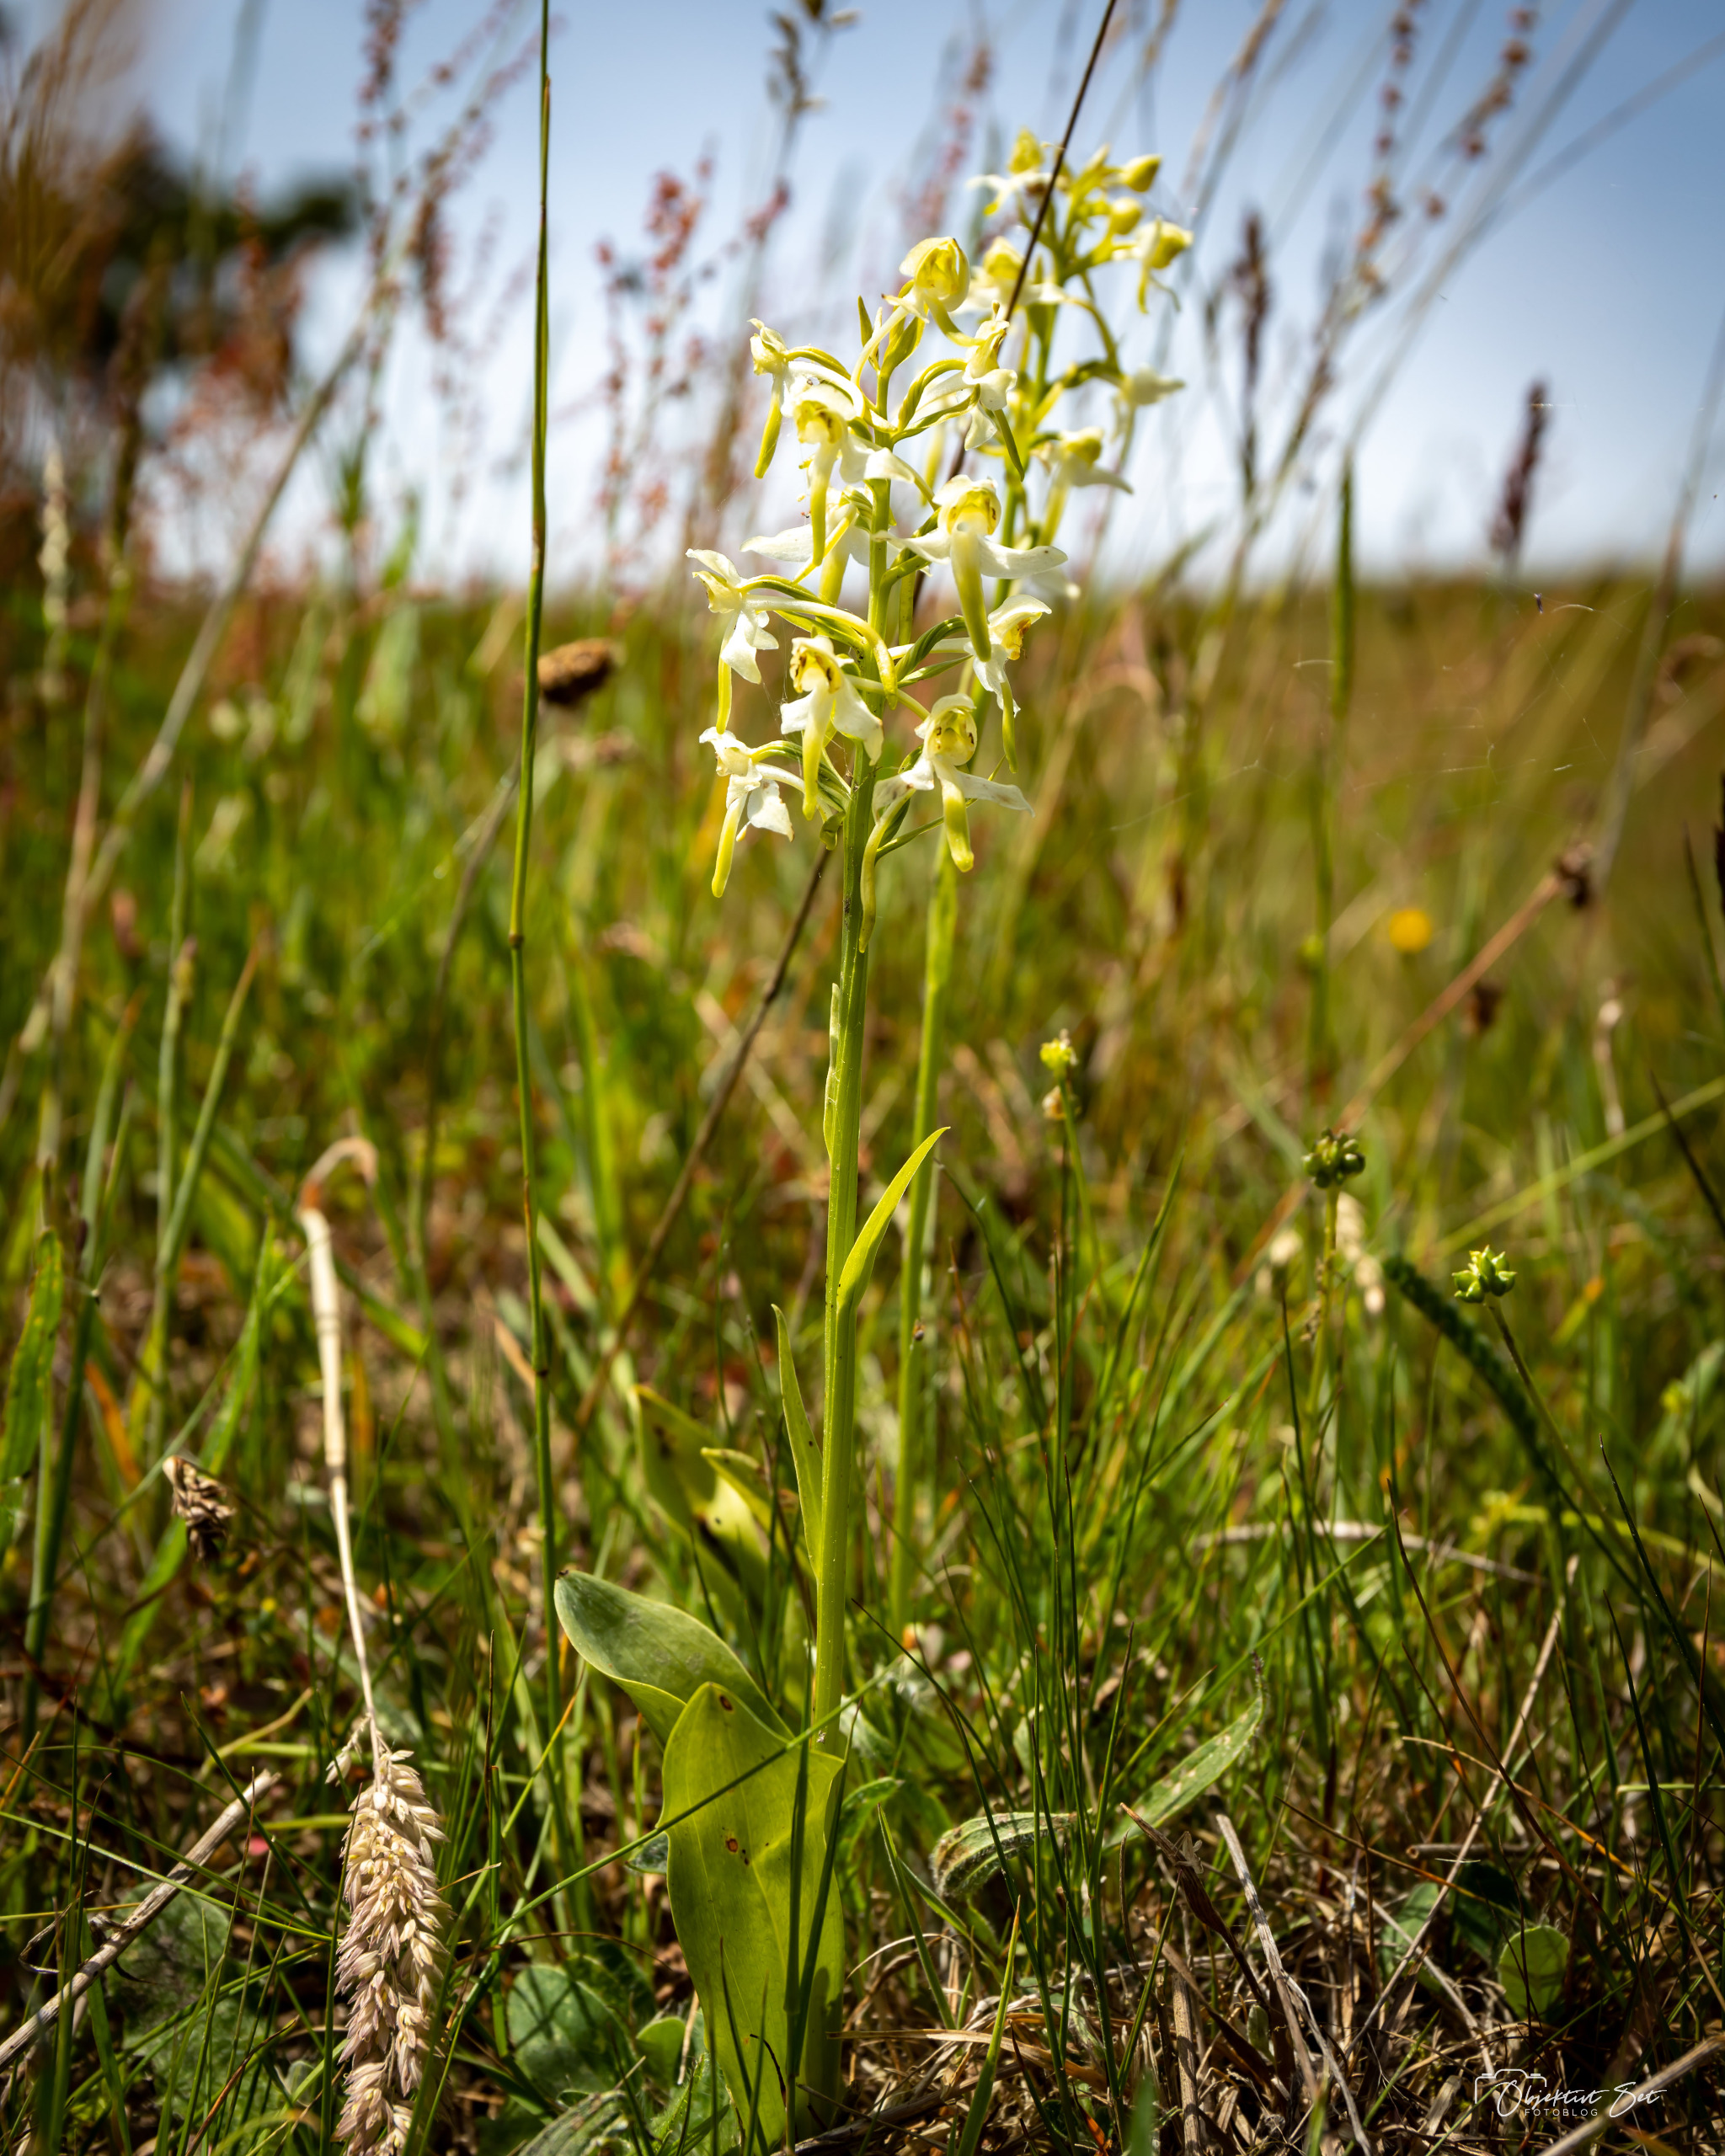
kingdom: Plantae
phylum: Tracheophyta
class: Liliopsida
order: Asparagales
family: Orchidaceae
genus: Platanthera
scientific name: Platanthera chlorantha
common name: Skov-gøgelilje
